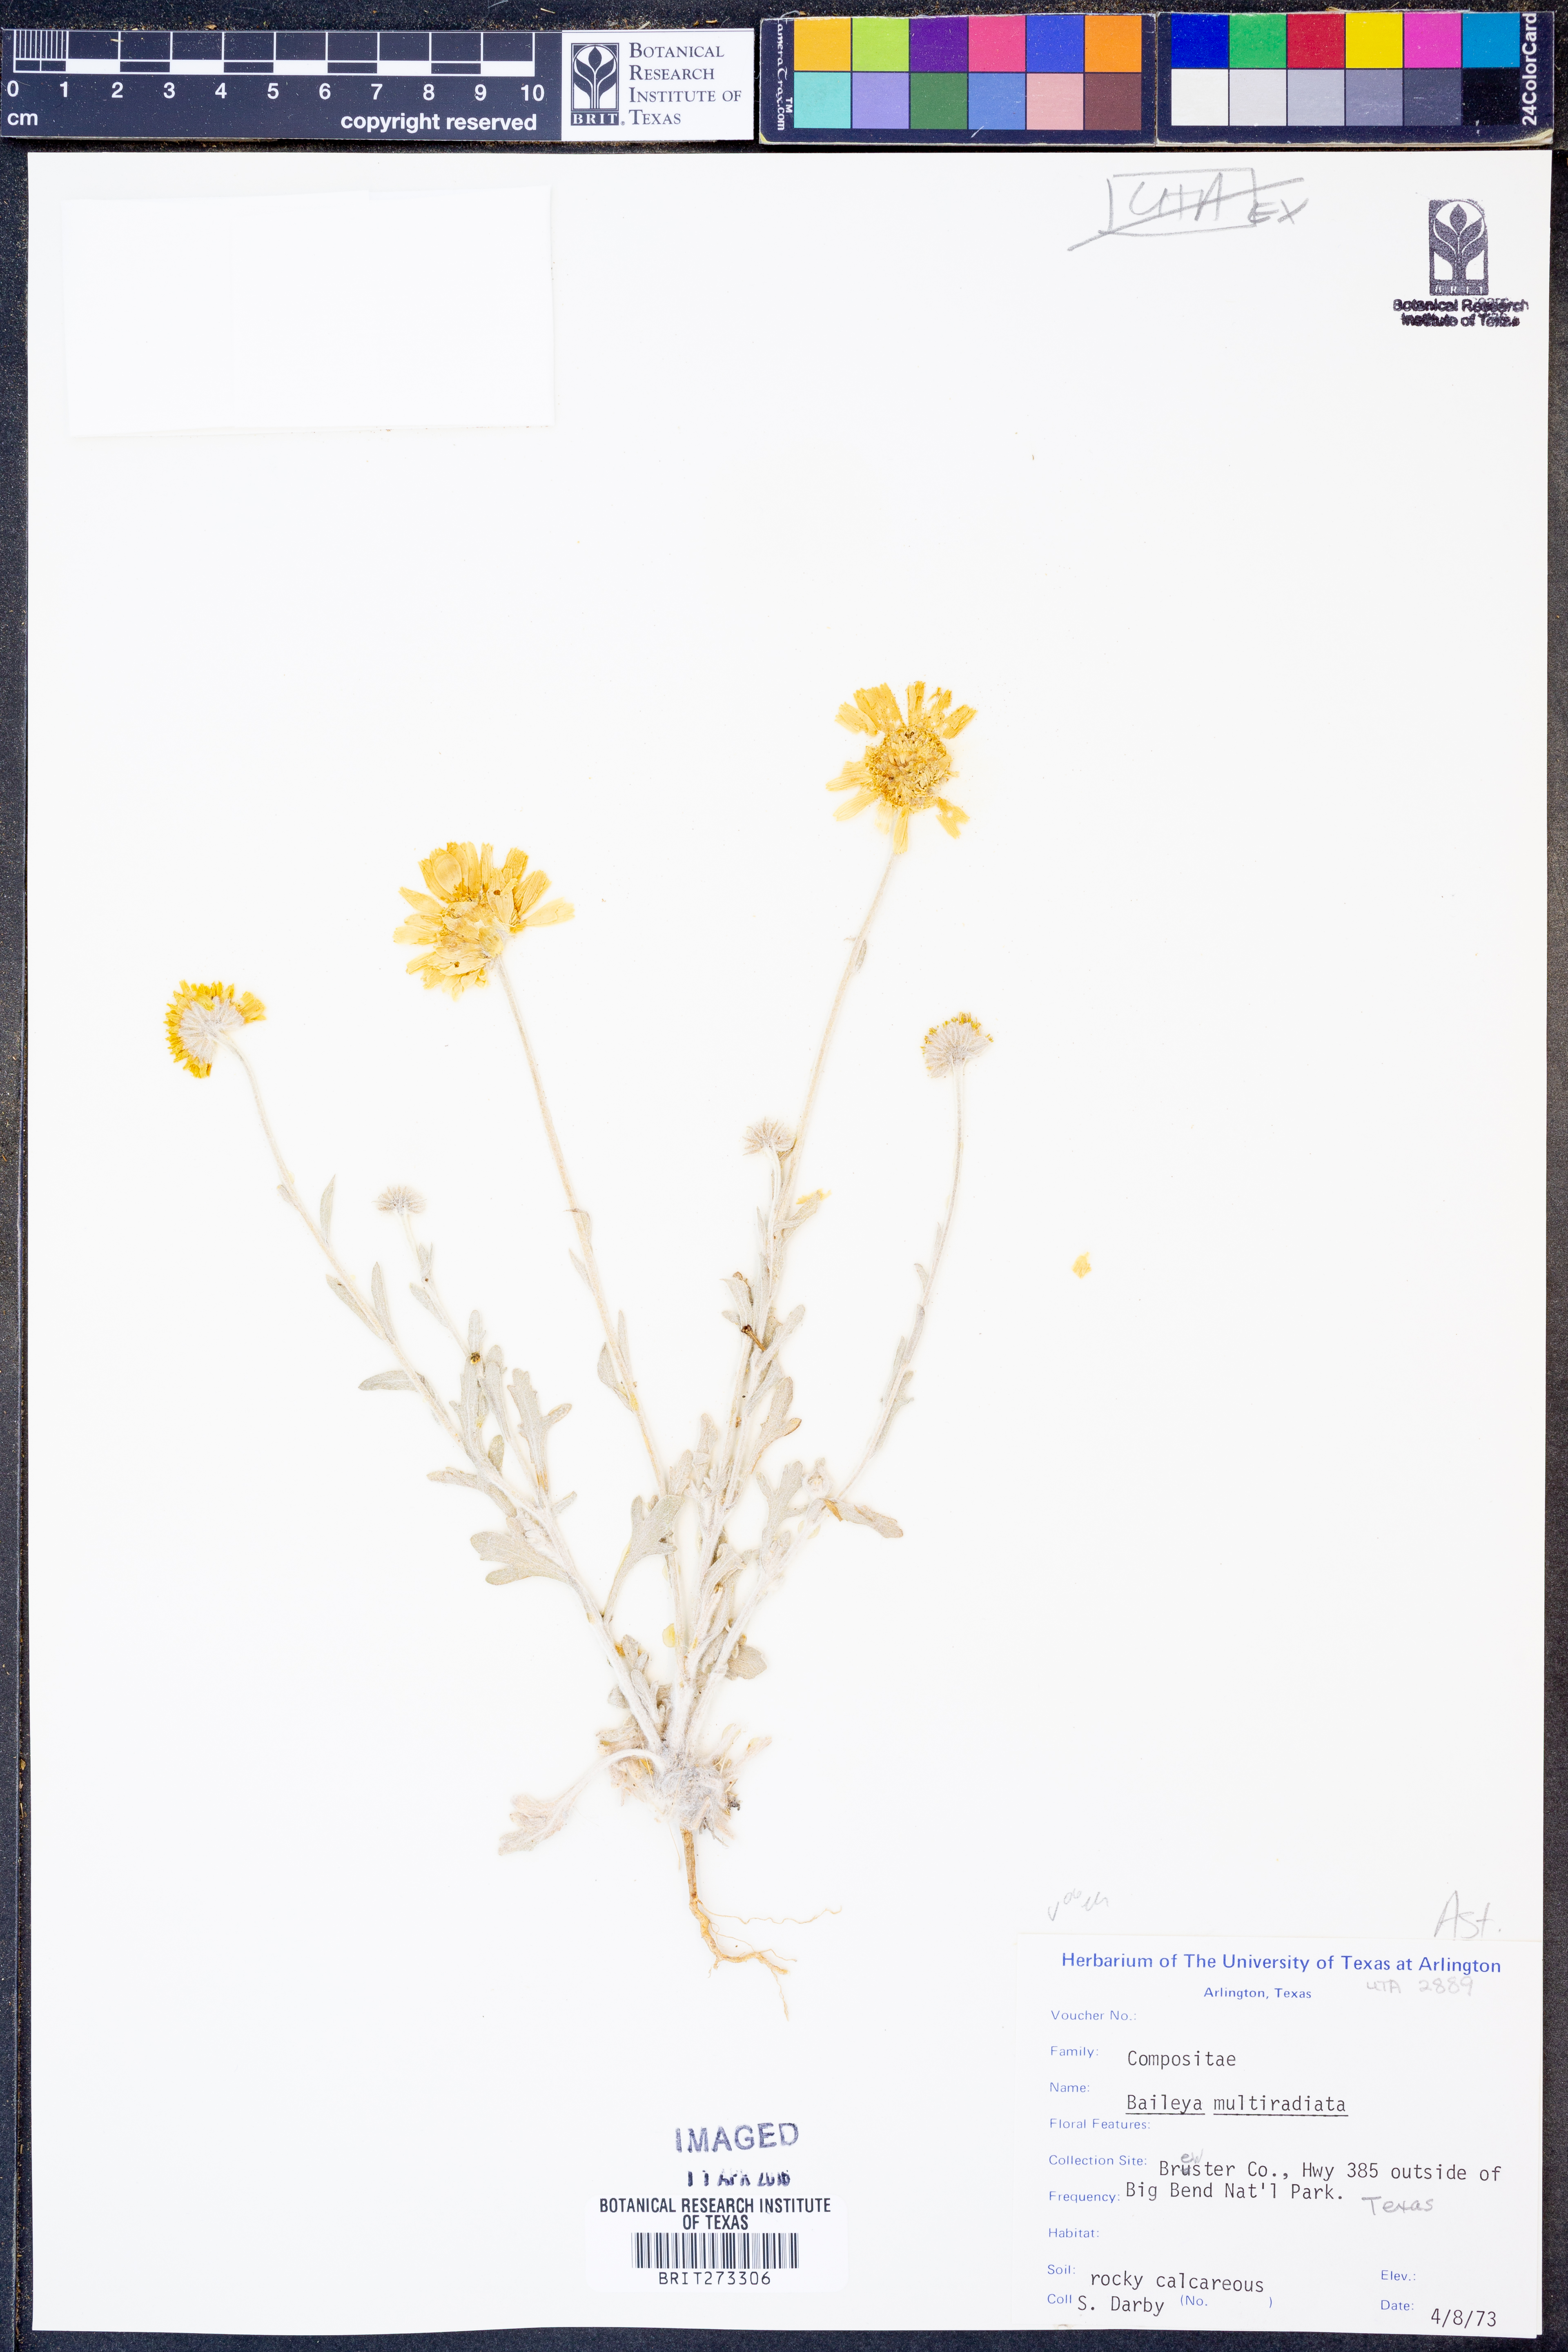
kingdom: Plantae
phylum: Tracheophyta
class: Magnoliopsida
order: Asterales
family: Asteraceae
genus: Baileya
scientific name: Baileya multiradiata
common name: Desert-marigold
